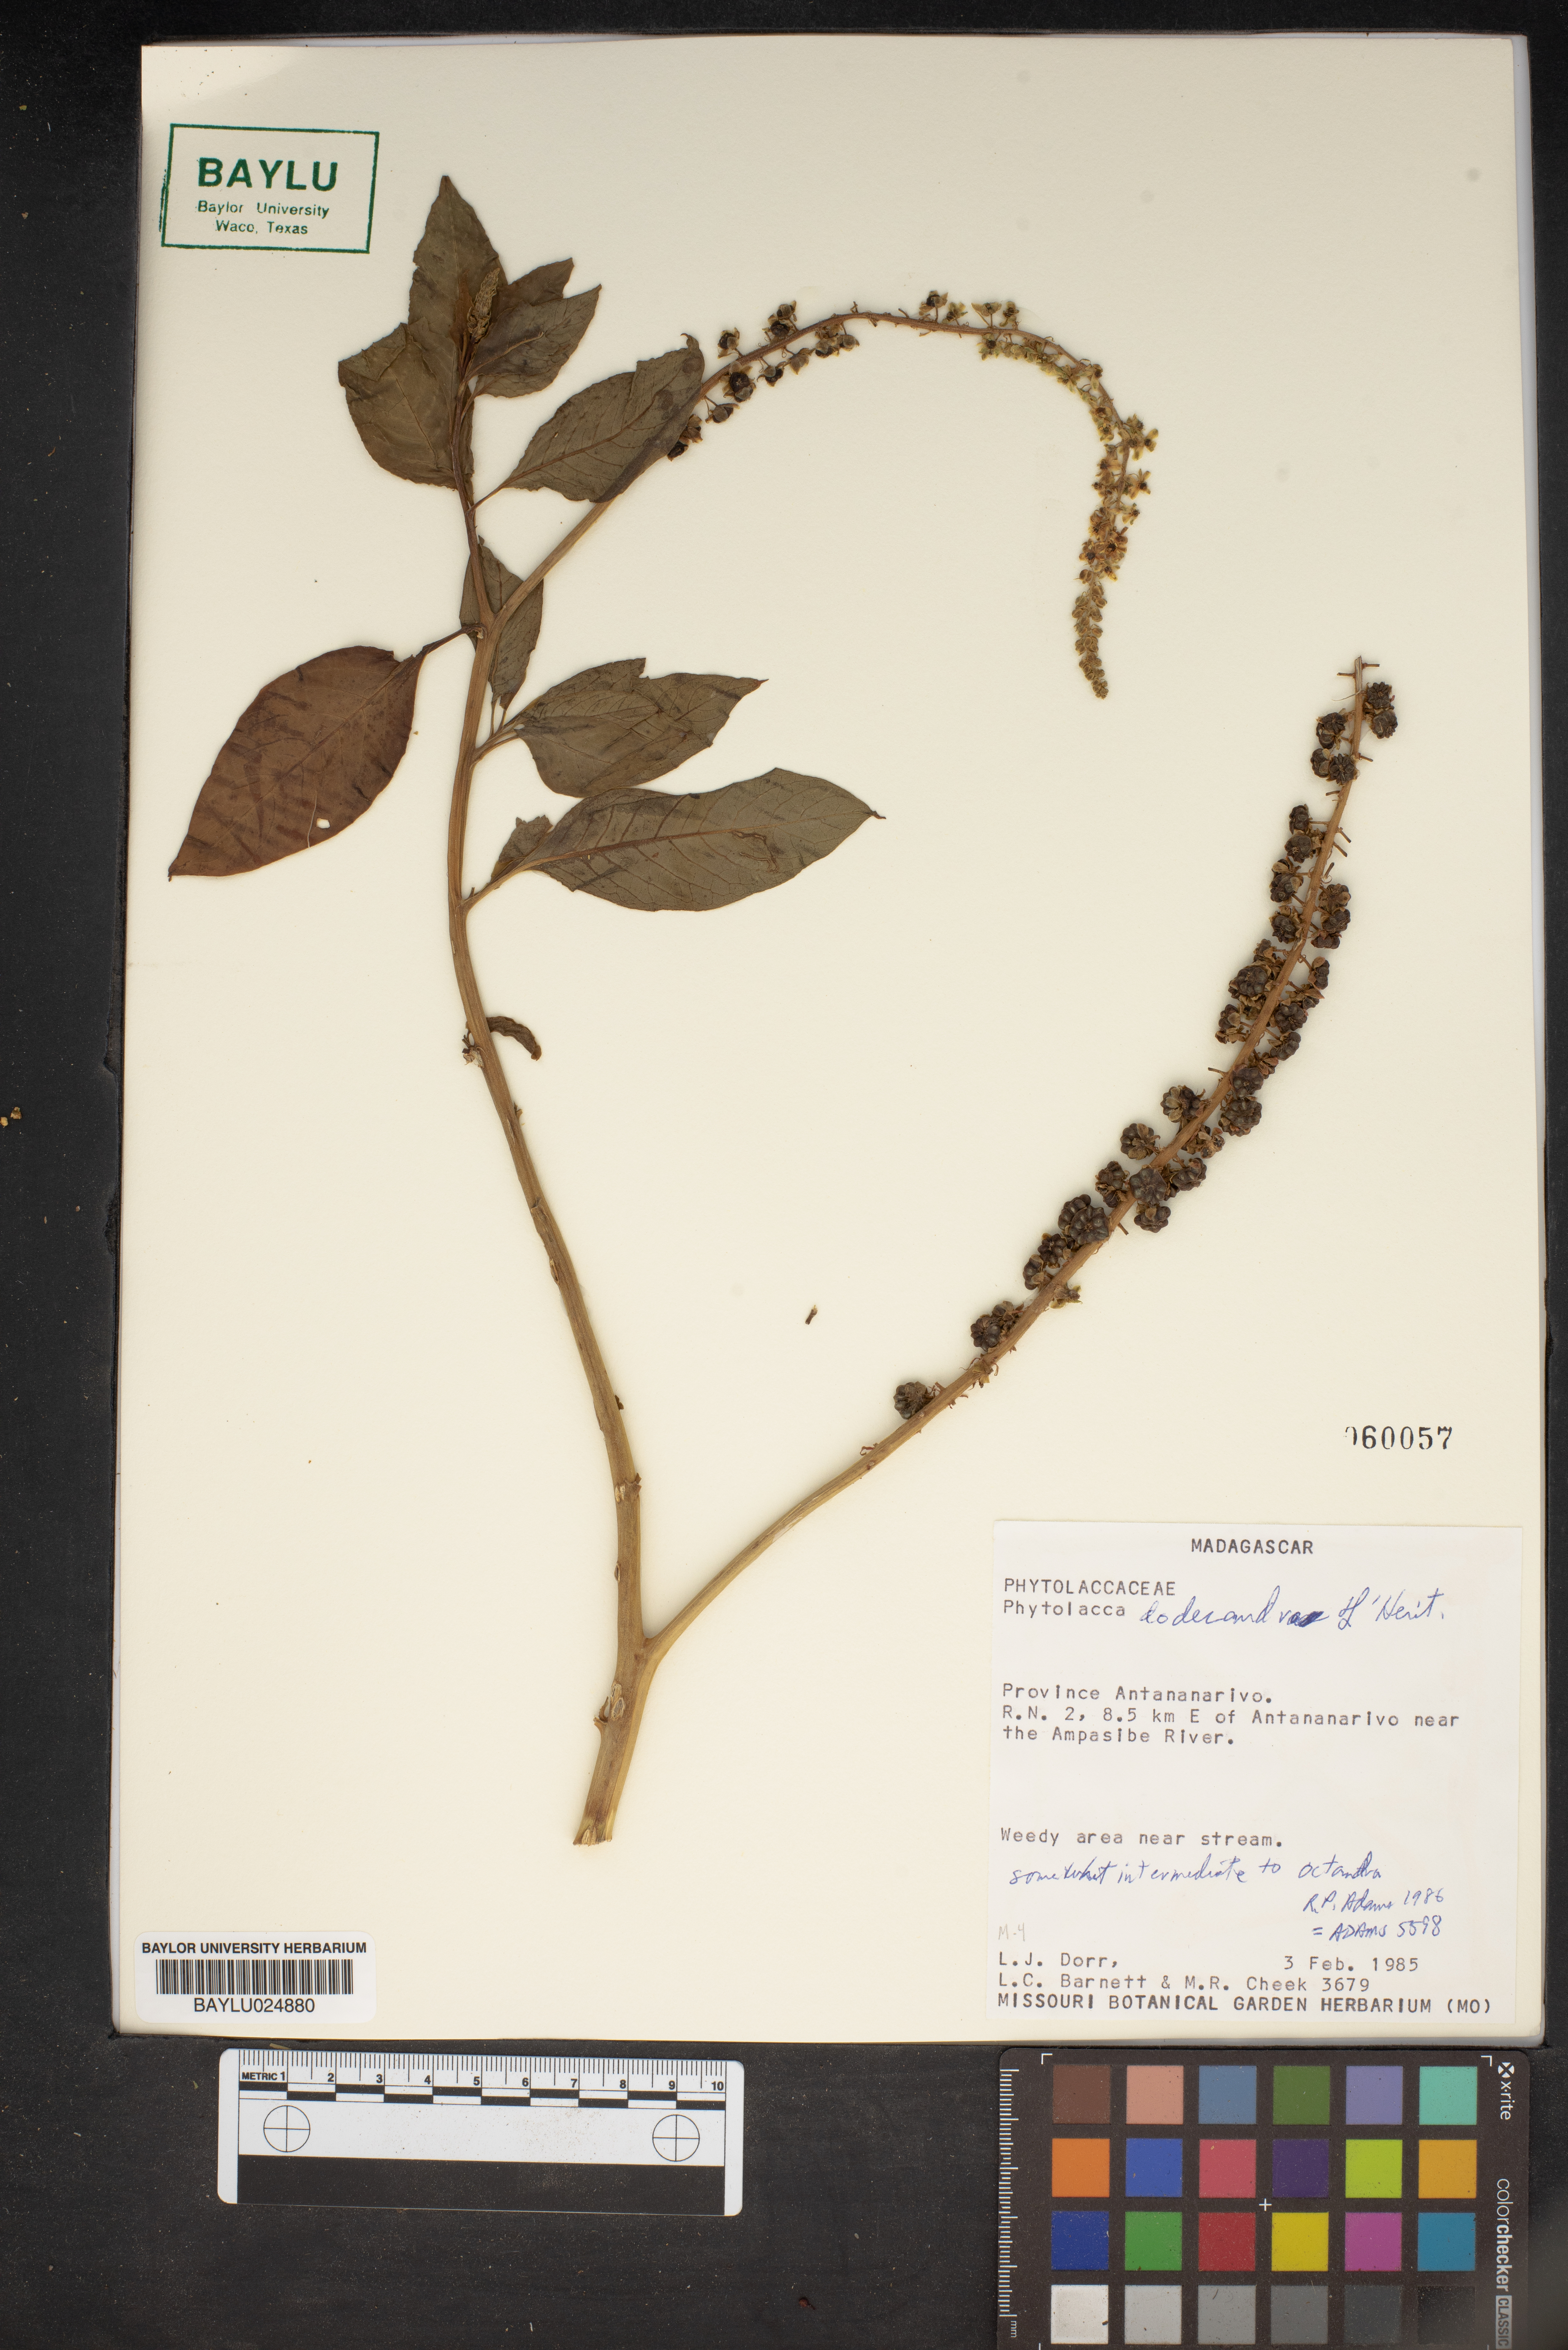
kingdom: Plantae
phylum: Tracheophyta
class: Magnoliopsida
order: Caryophyllales
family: Phytolaccaceae
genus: Phytolacca
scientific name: Phytolacca dodecandra
